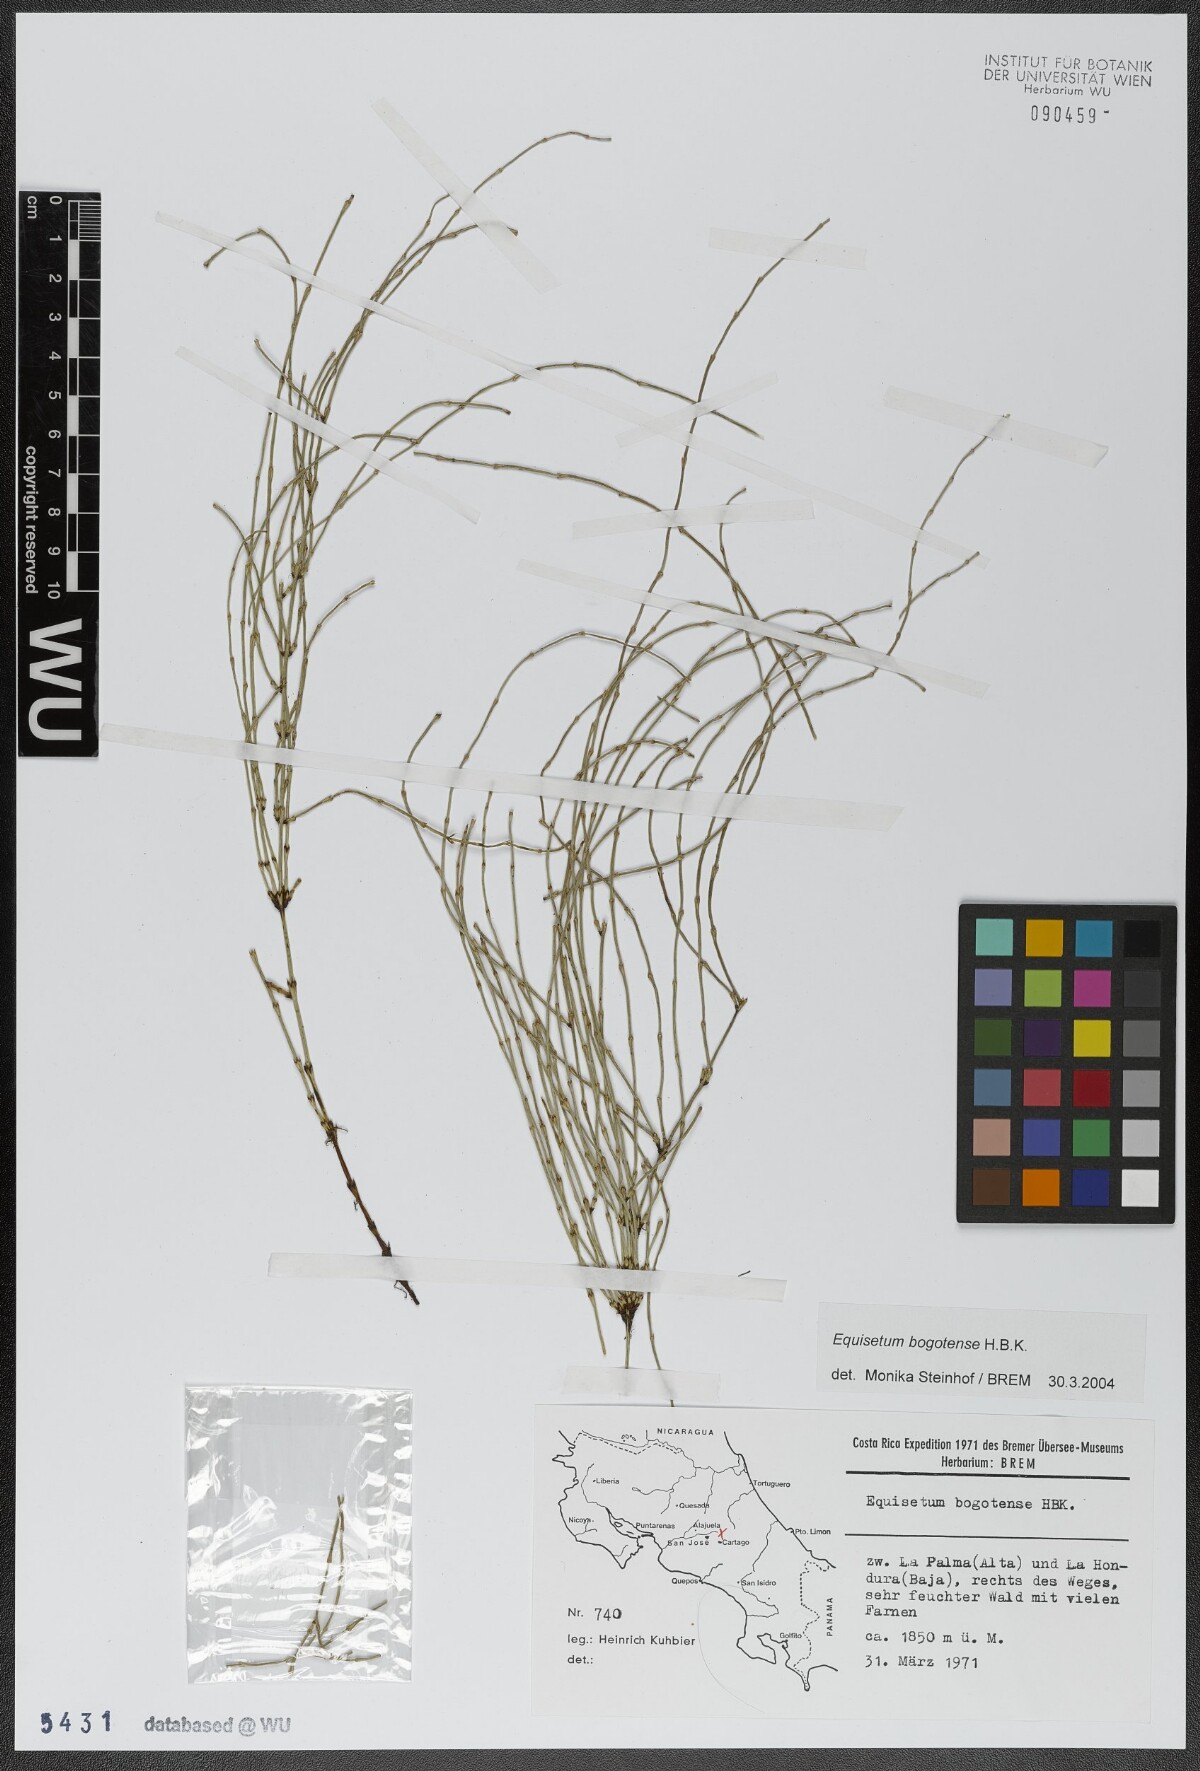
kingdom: Plantae
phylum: Tracheophyta
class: Polypodiopsida
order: Equisetales
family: Equisetaceae
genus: Equisetum
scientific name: Equisetum bogotense
